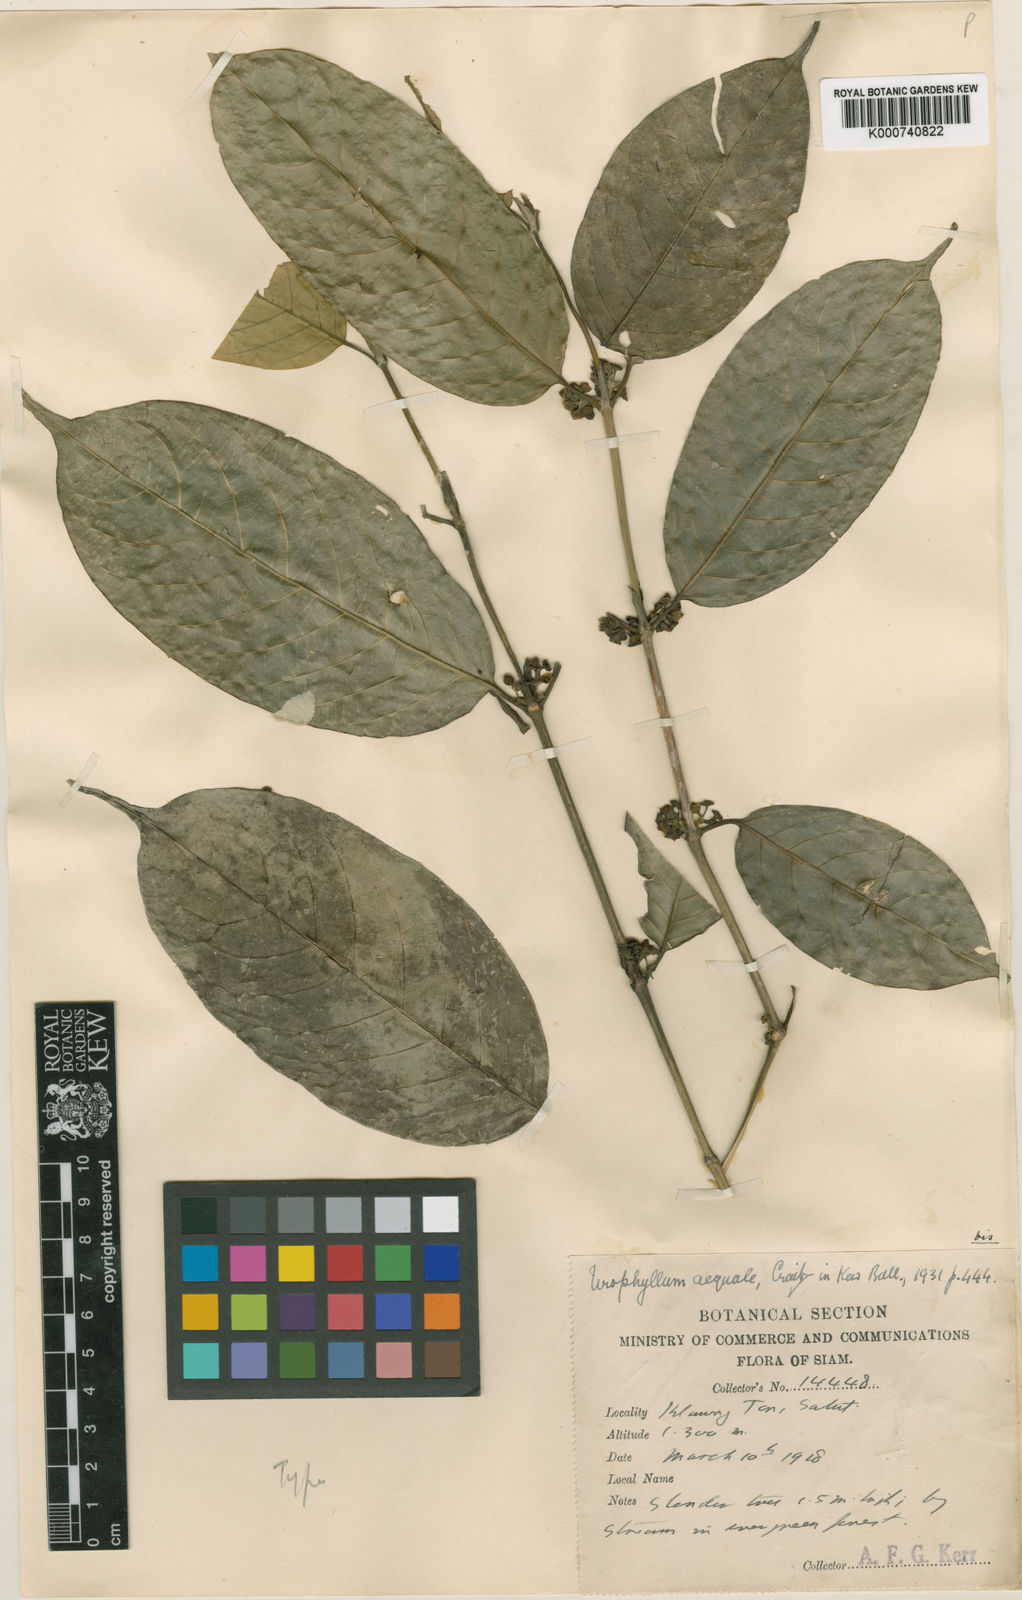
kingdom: Plantae
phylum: Tracheophyta
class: Magnoliopsida
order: Gentianales
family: Rubiaceae
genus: Urophyllum
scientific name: Urophyllum aequale
